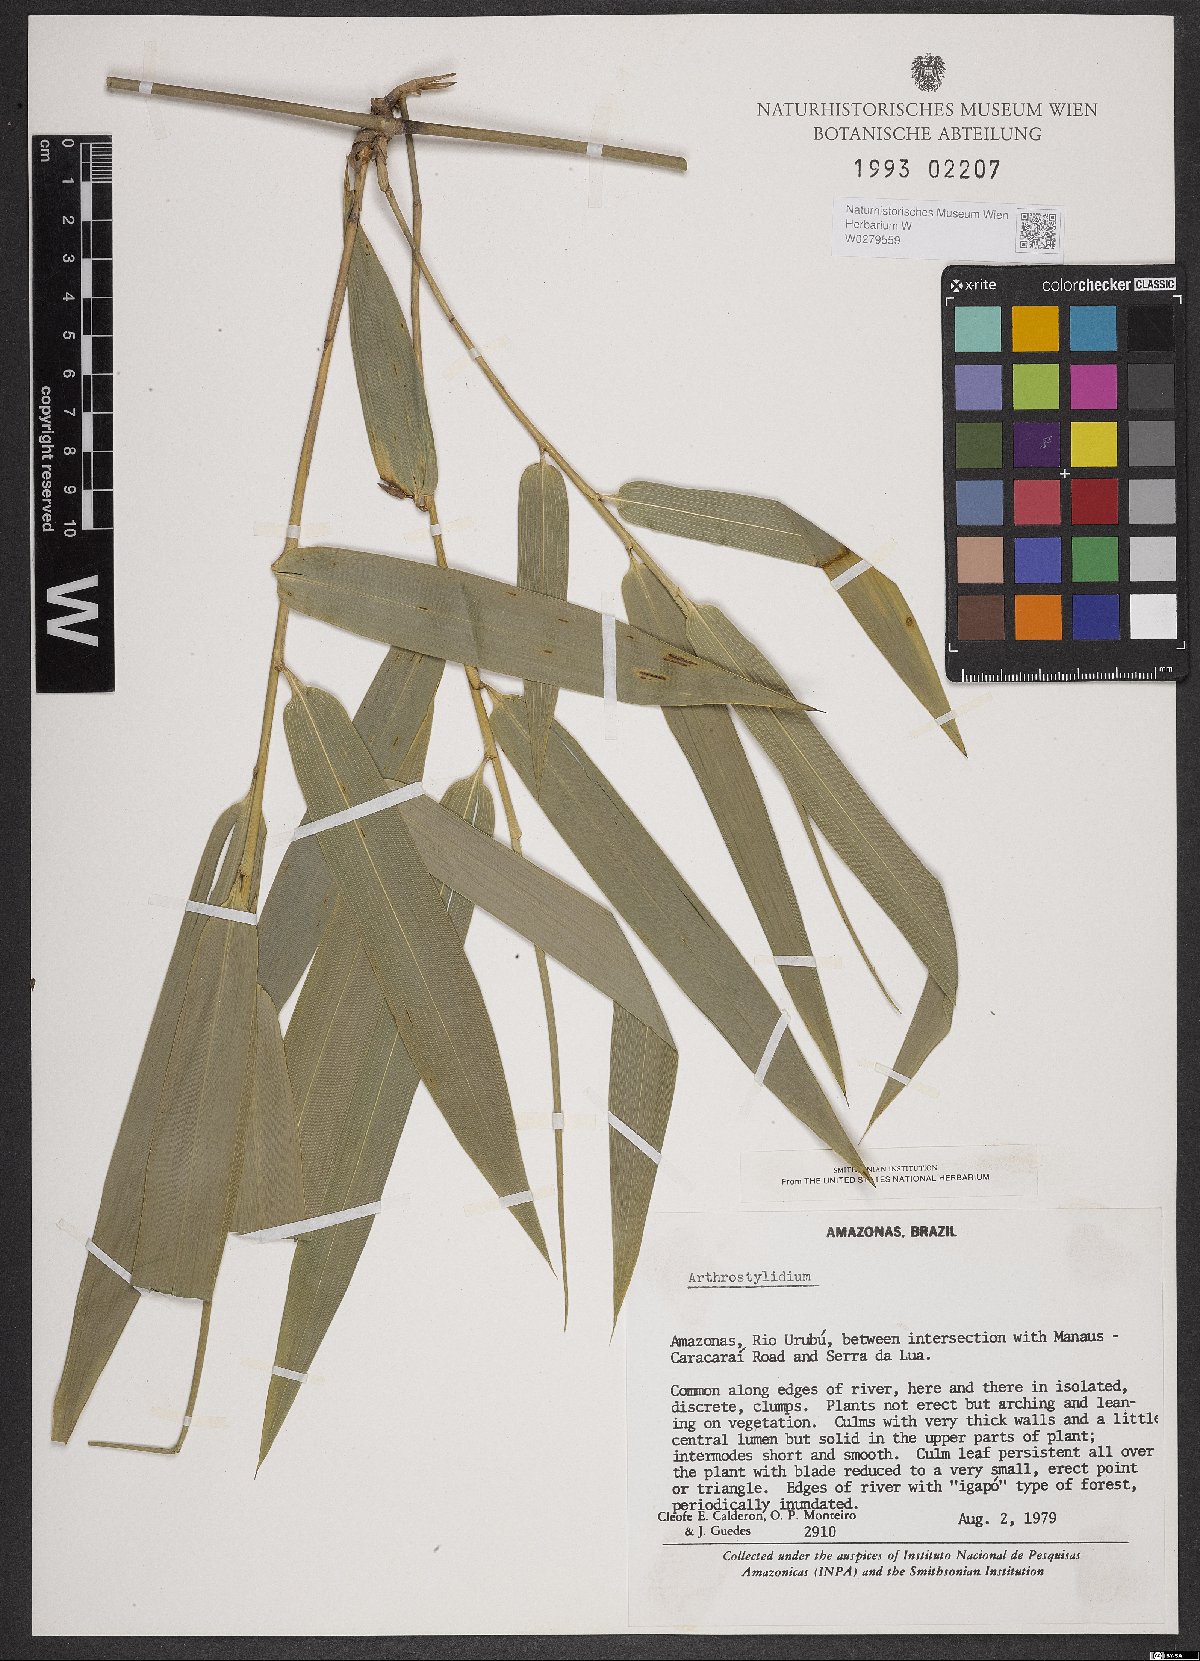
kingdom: Plantae
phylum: Tracheophyta
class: Liliopsida
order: Poales
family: Poaceae
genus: Arthrostylidium
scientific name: Arthrostylidium
